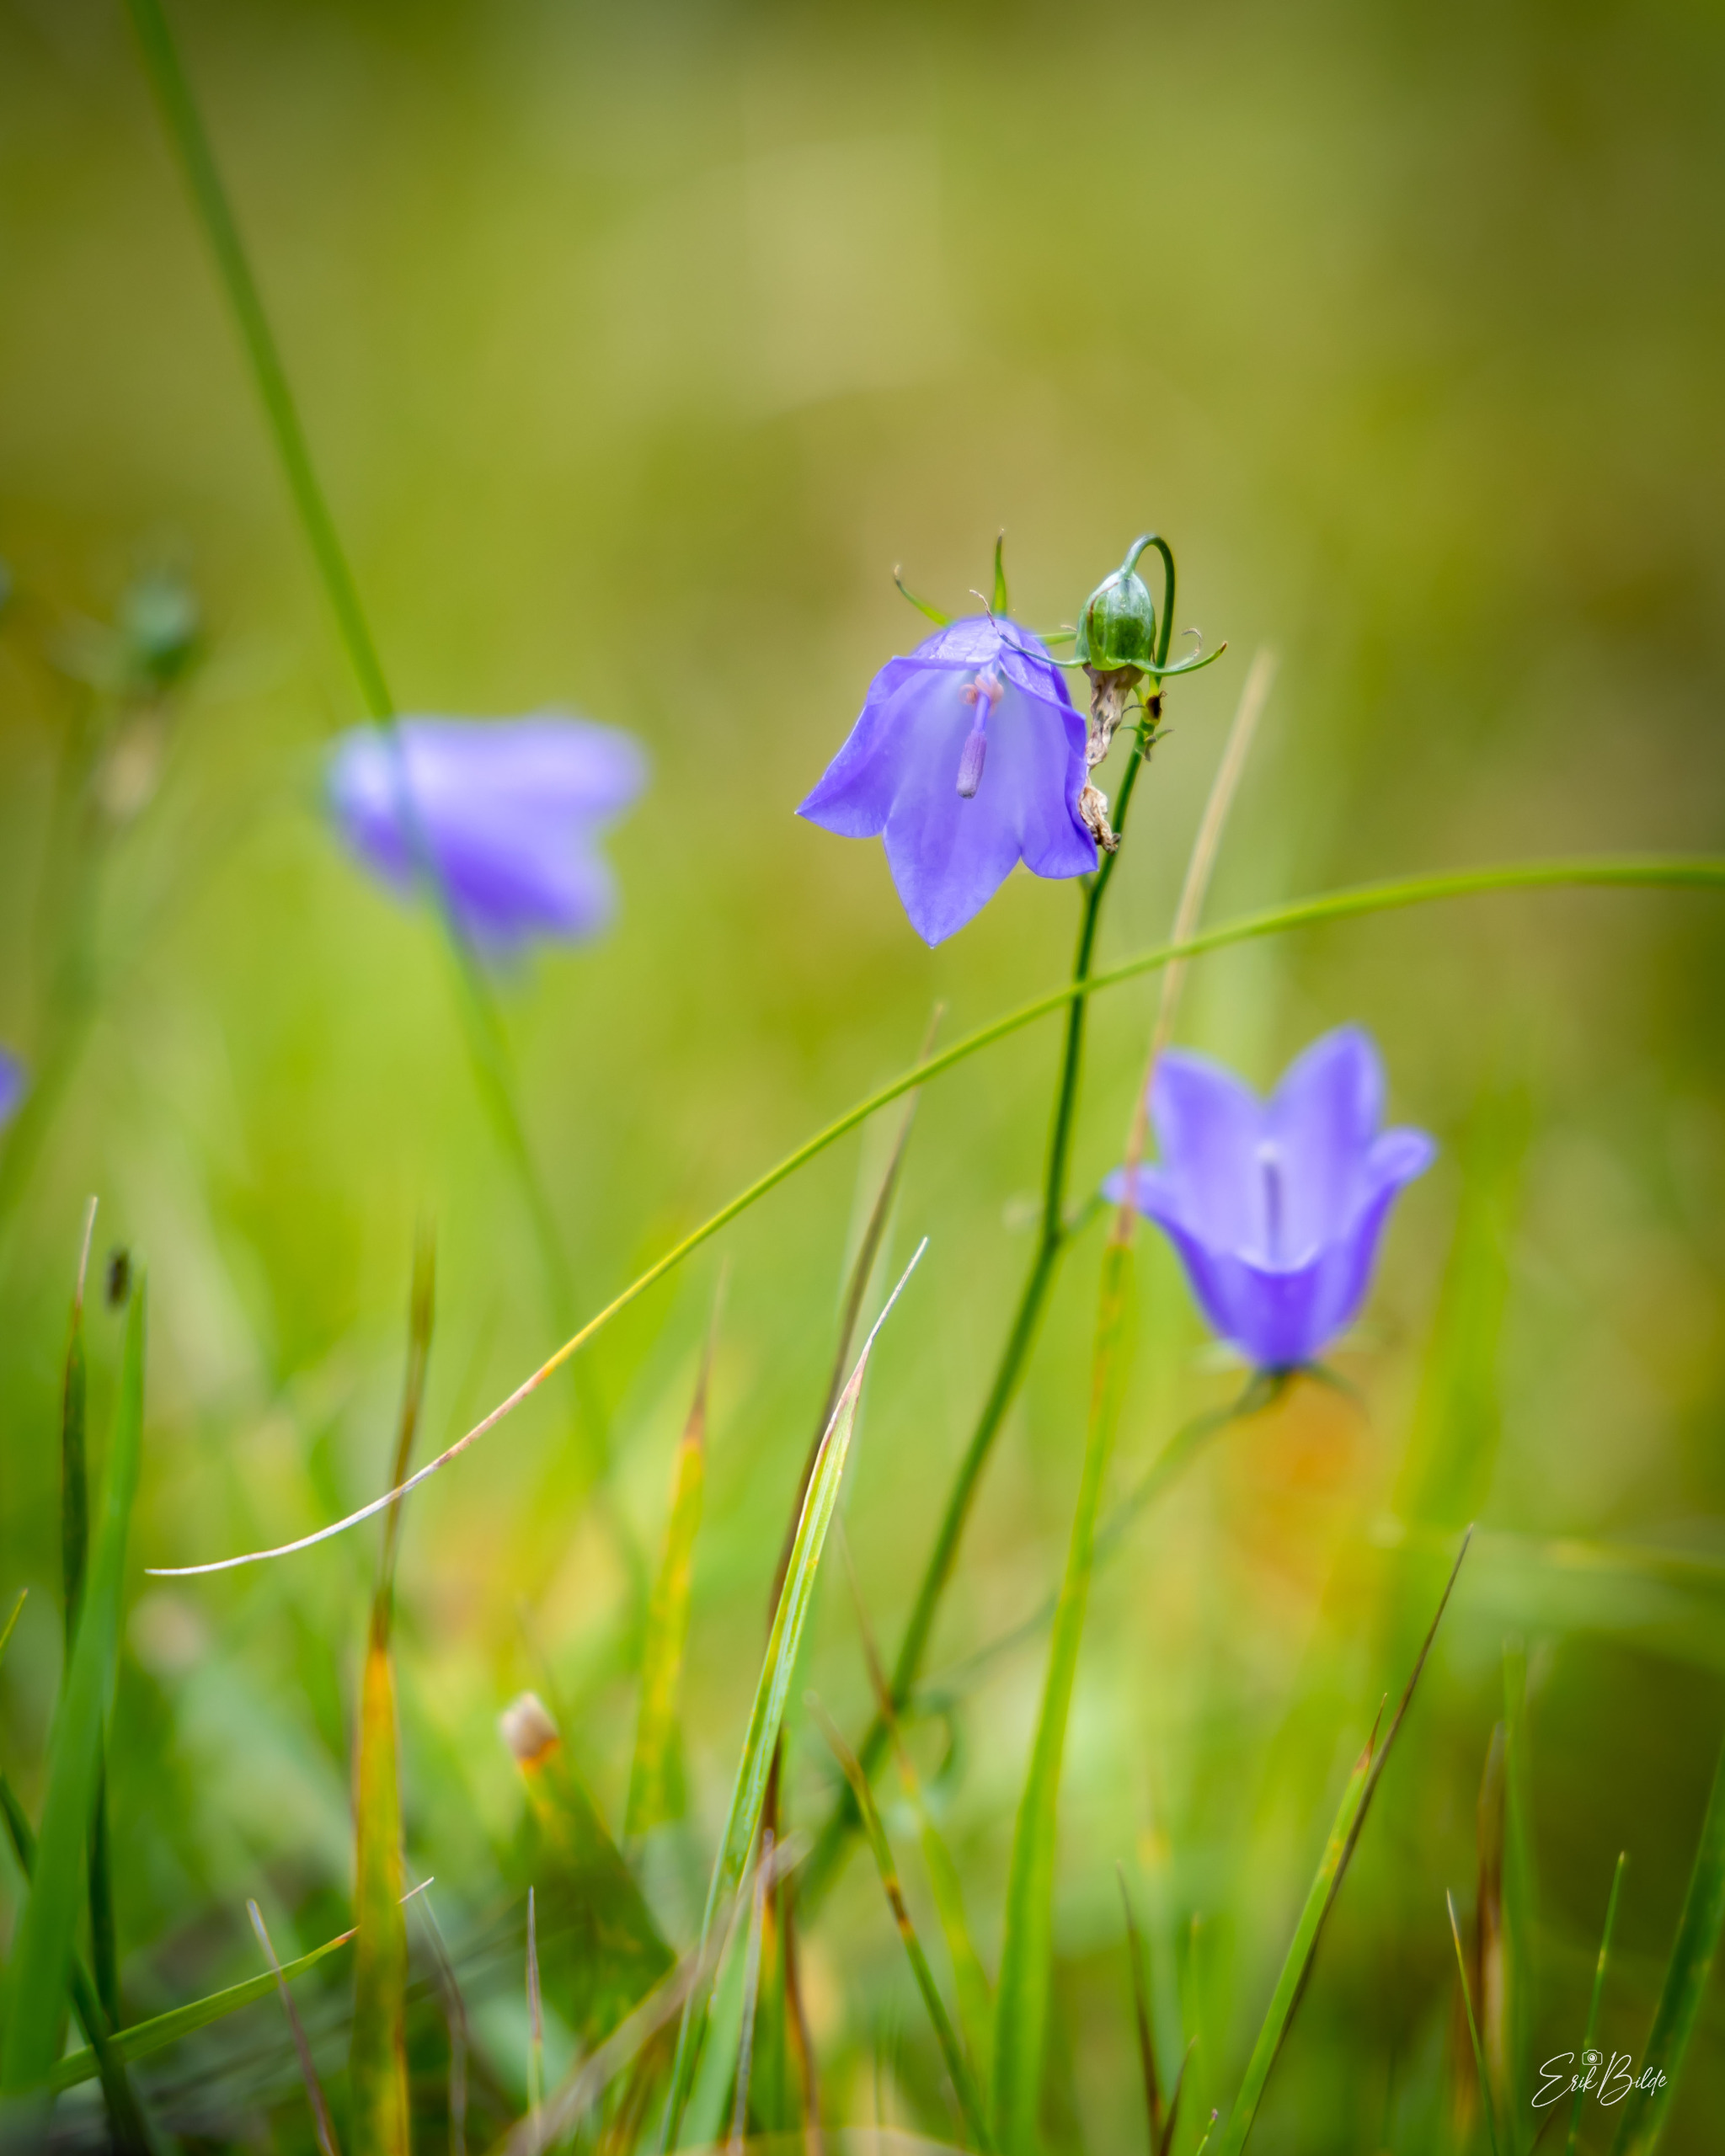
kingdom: Plantae
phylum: Tracheophyta
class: Magnoliopsida
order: Asterales
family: Campanulaceae
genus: Campanula
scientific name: Campanula rotundifolia
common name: Liden klokke
